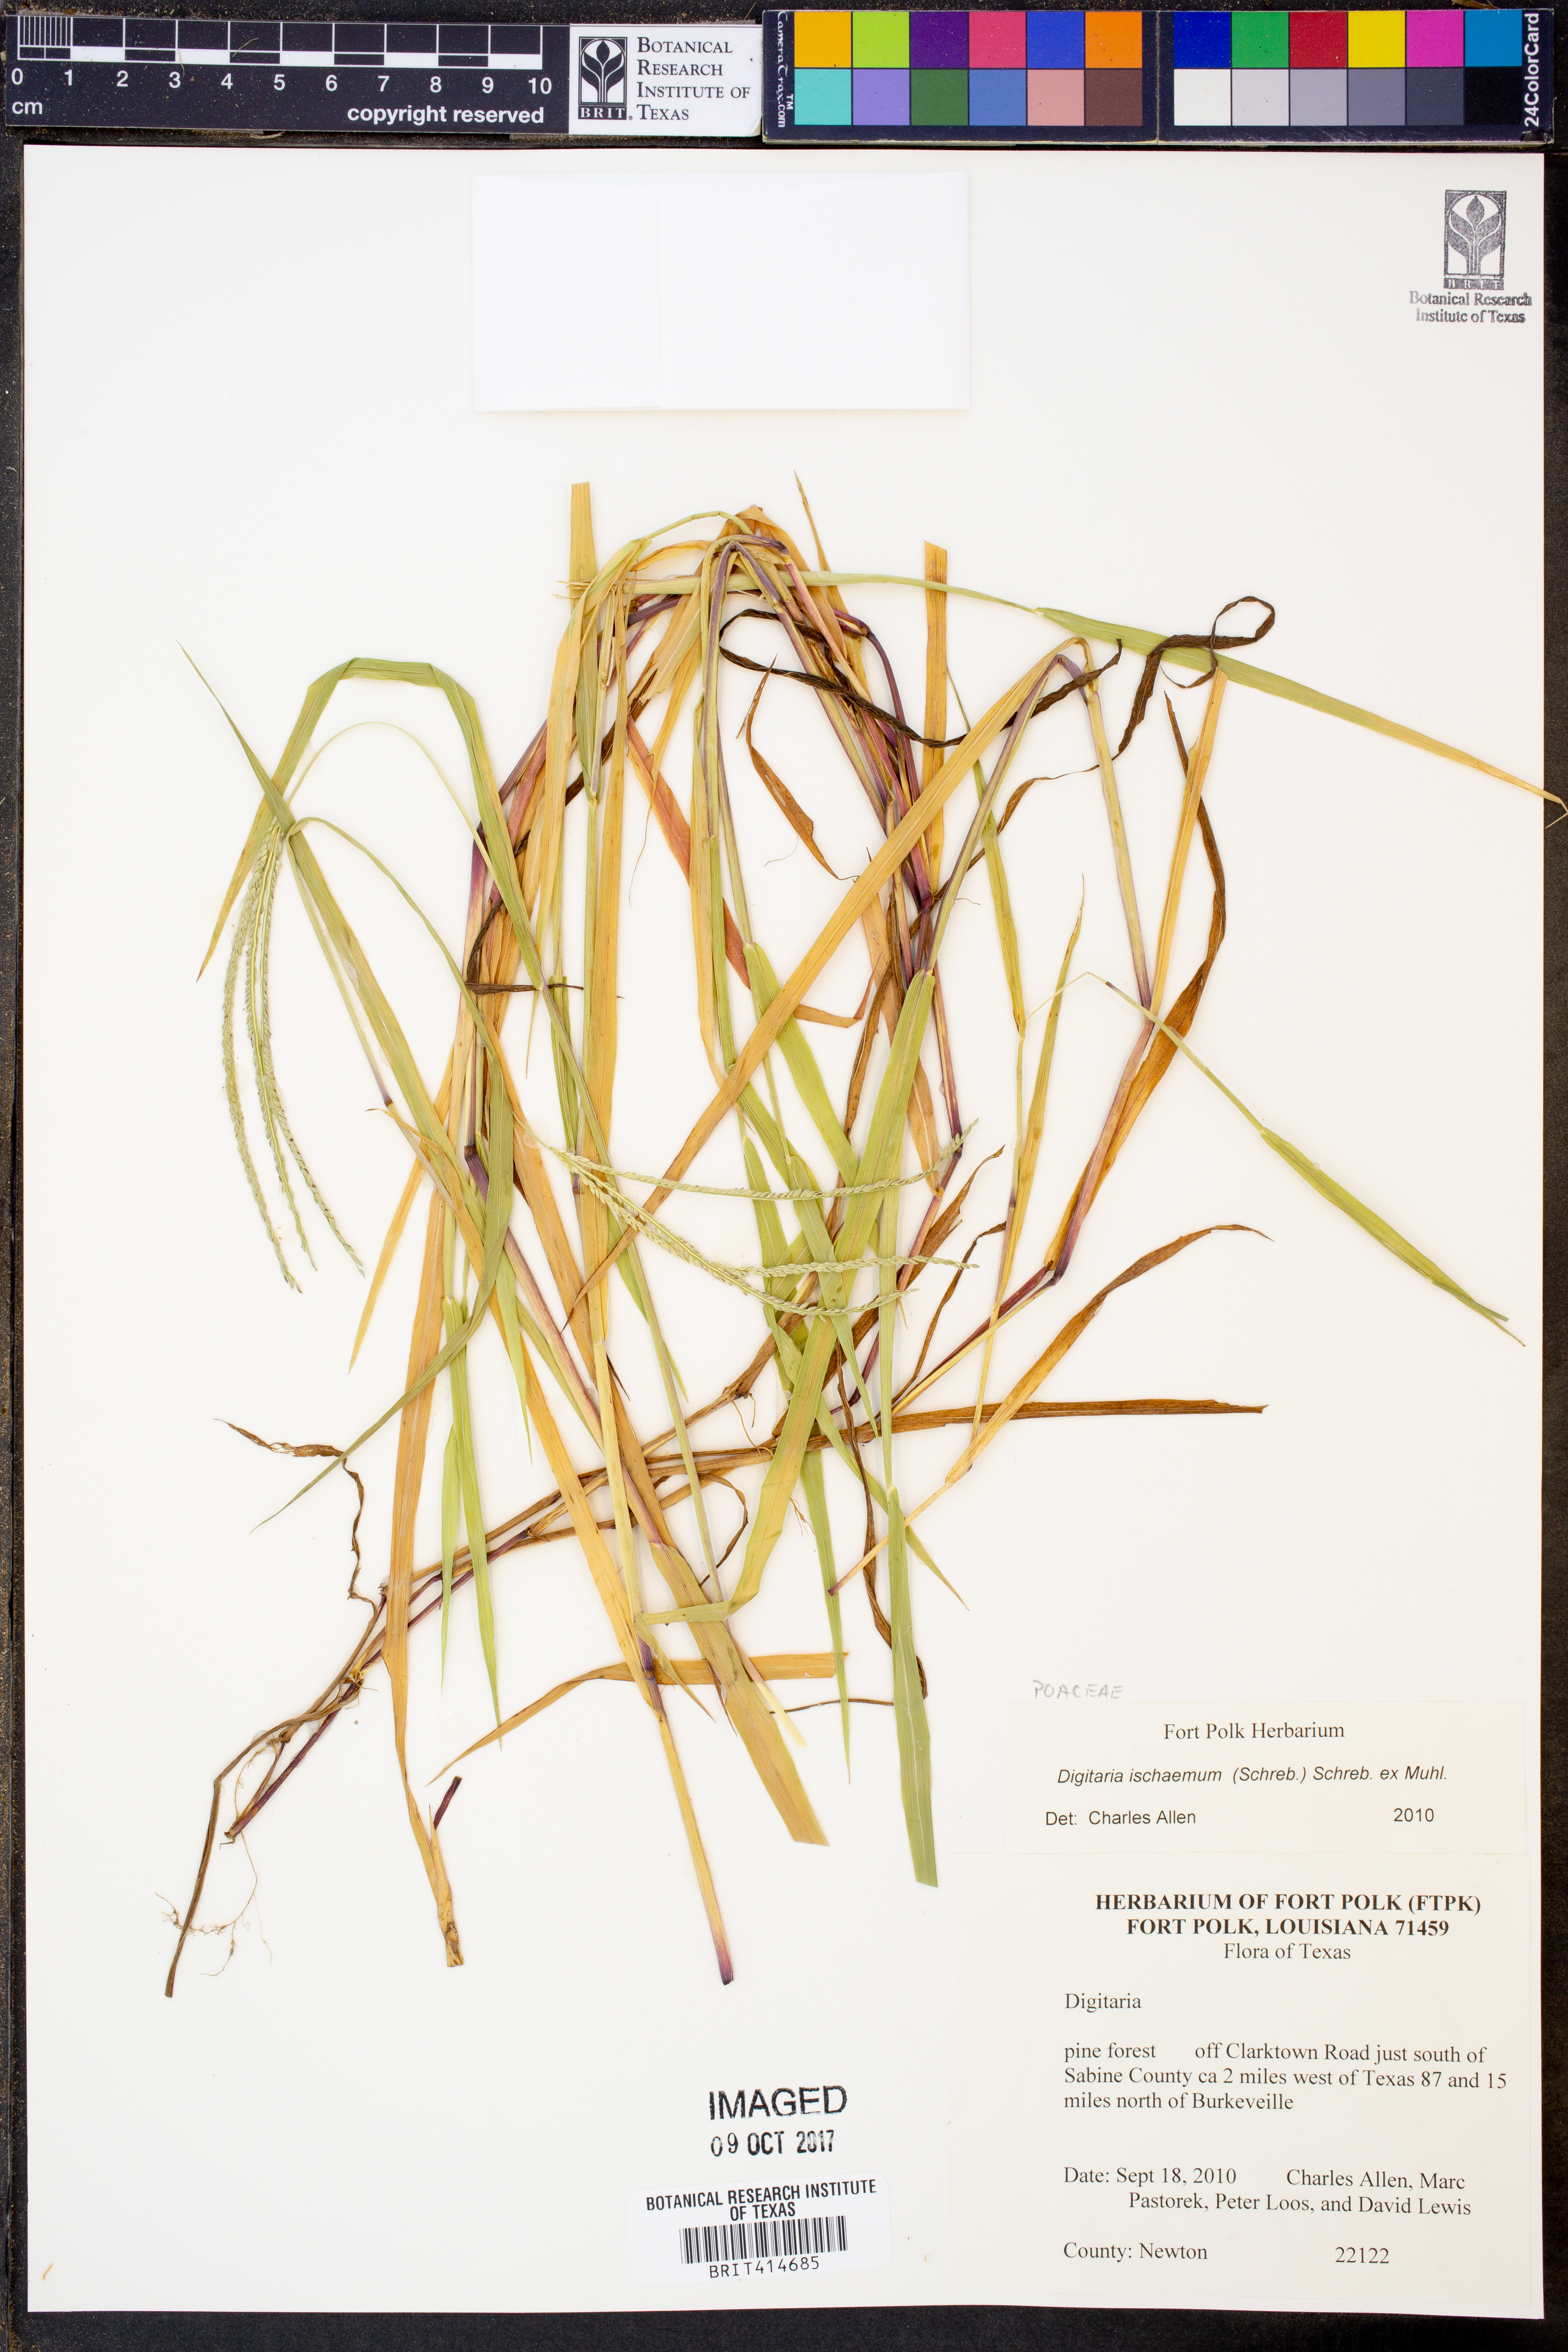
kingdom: Plantae
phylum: Tracheophyta
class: Liliopsida
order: Poales
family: Poaceae
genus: Digitaria
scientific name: Digitaria ischaemum
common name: Smooth crabgrass
